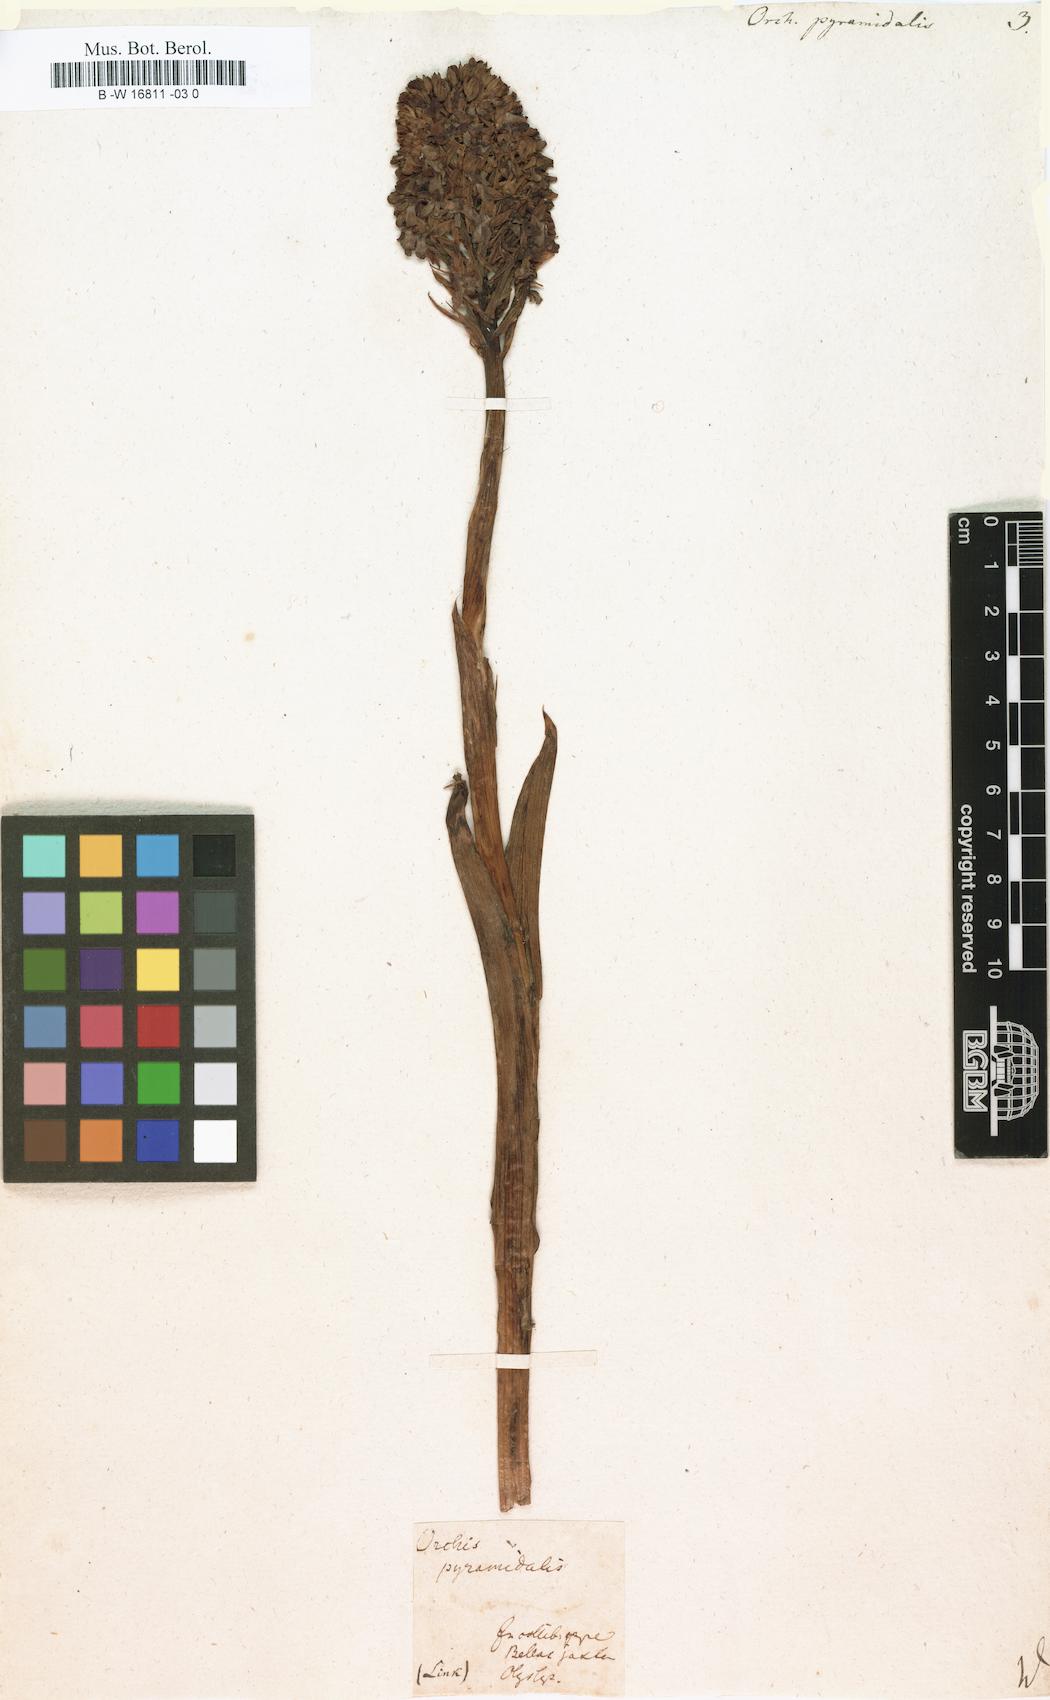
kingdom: Plantae
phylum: Tracheophyta
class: Liliopsida
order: Asparagales
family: Orchidaceae
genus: Anacamptis
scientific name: Anacamptis pyramidalis
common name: Pyramidal orchid
